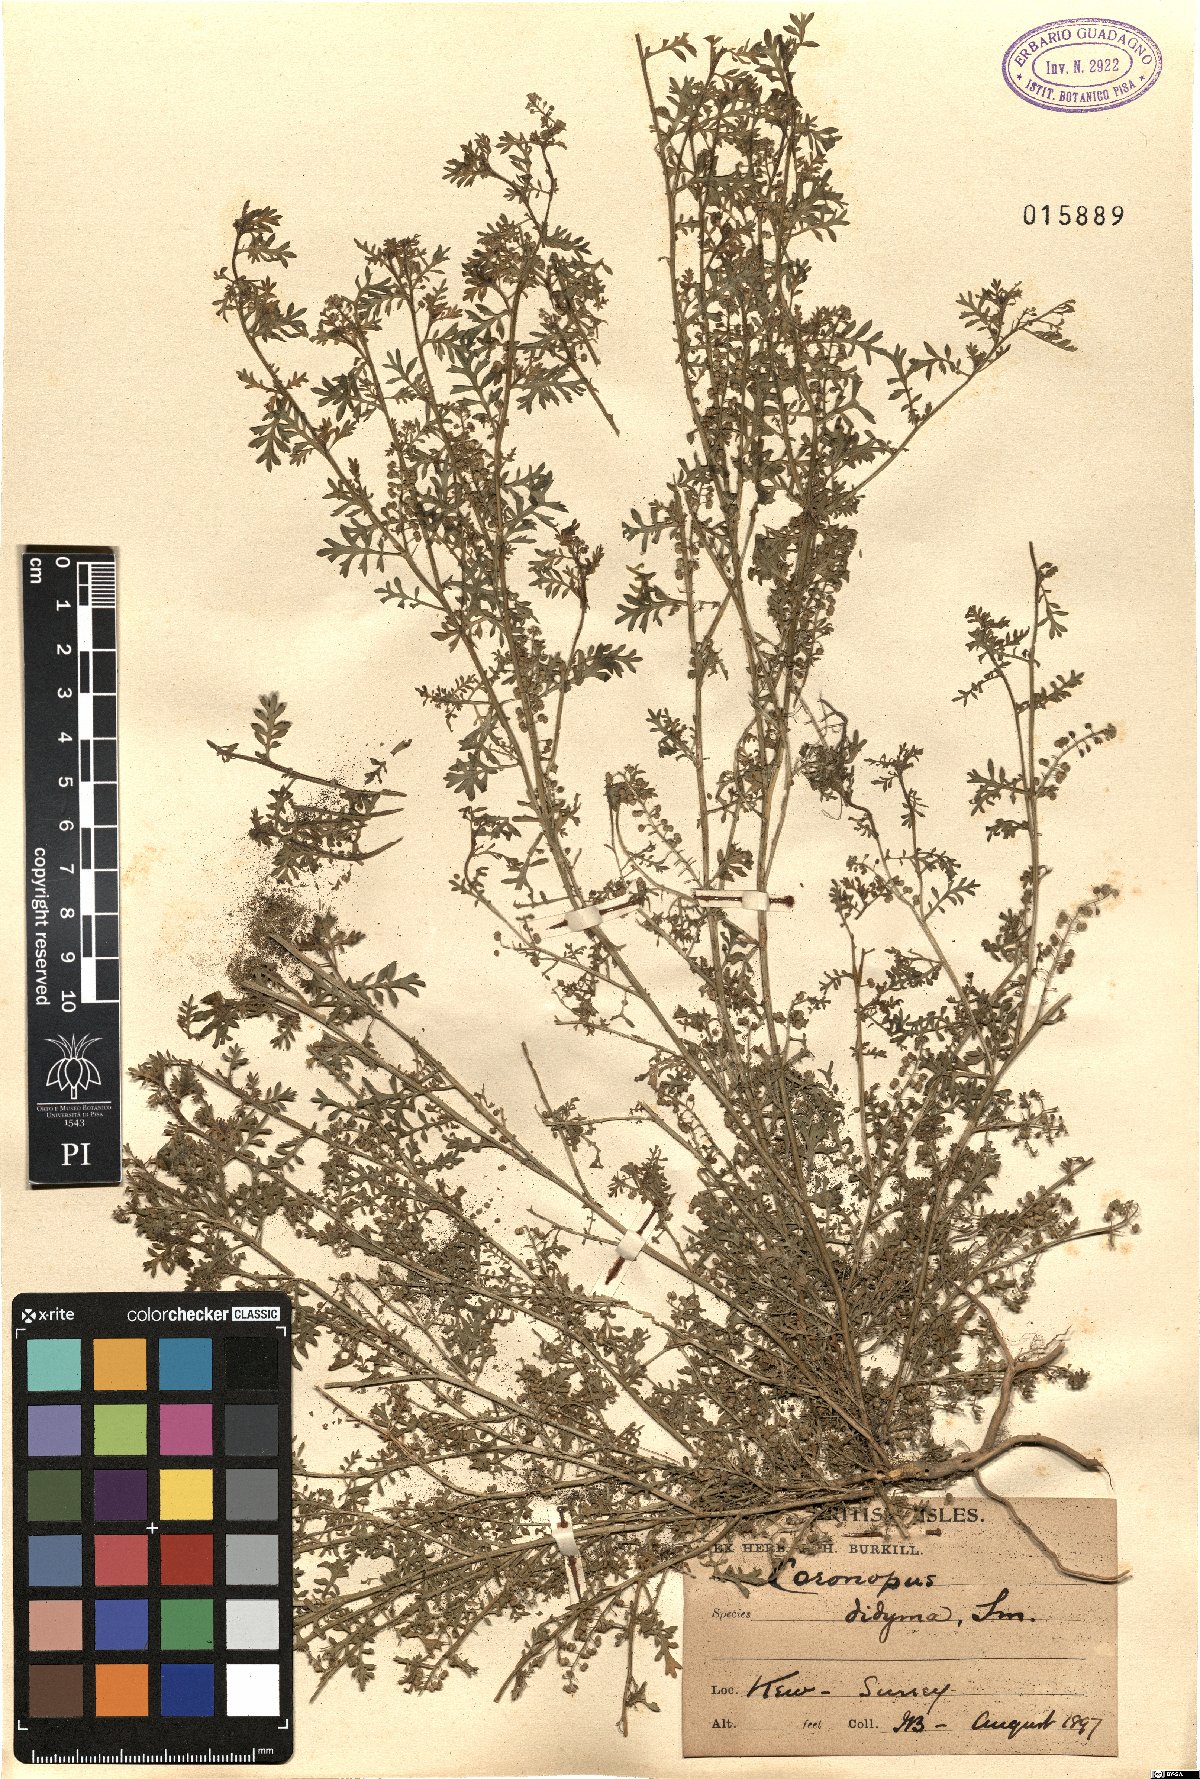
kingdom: Plantae
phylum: Tracheophyta
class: Magnoliopsida
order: Brassicales
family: Brassicaceae
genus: Lepidium
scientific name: Lepidium didymum
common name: Lesser swinecress
